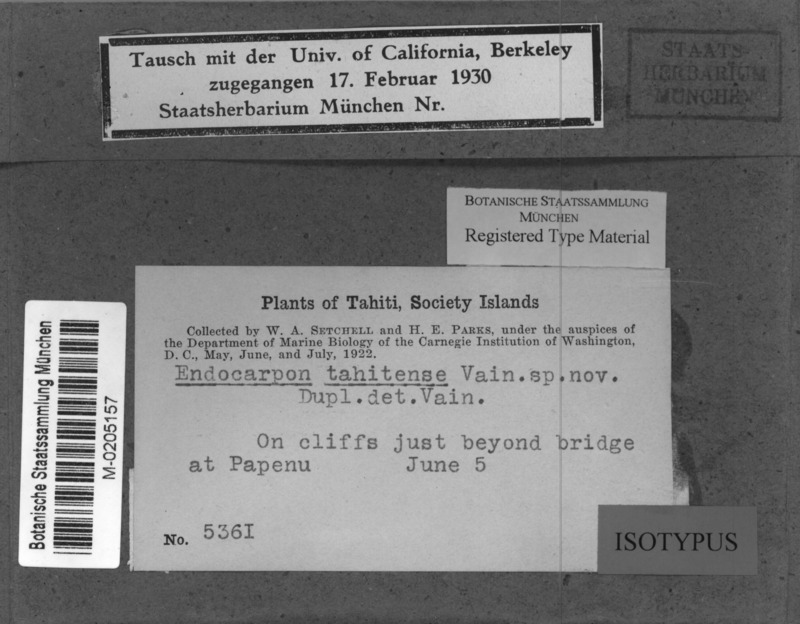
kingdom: Fungi
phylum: Ascomycota
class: Eurotiomycetes
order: Verrucariales
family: Verrucariaceae
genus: Endocarpon
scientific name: Endocarpon tahitense
